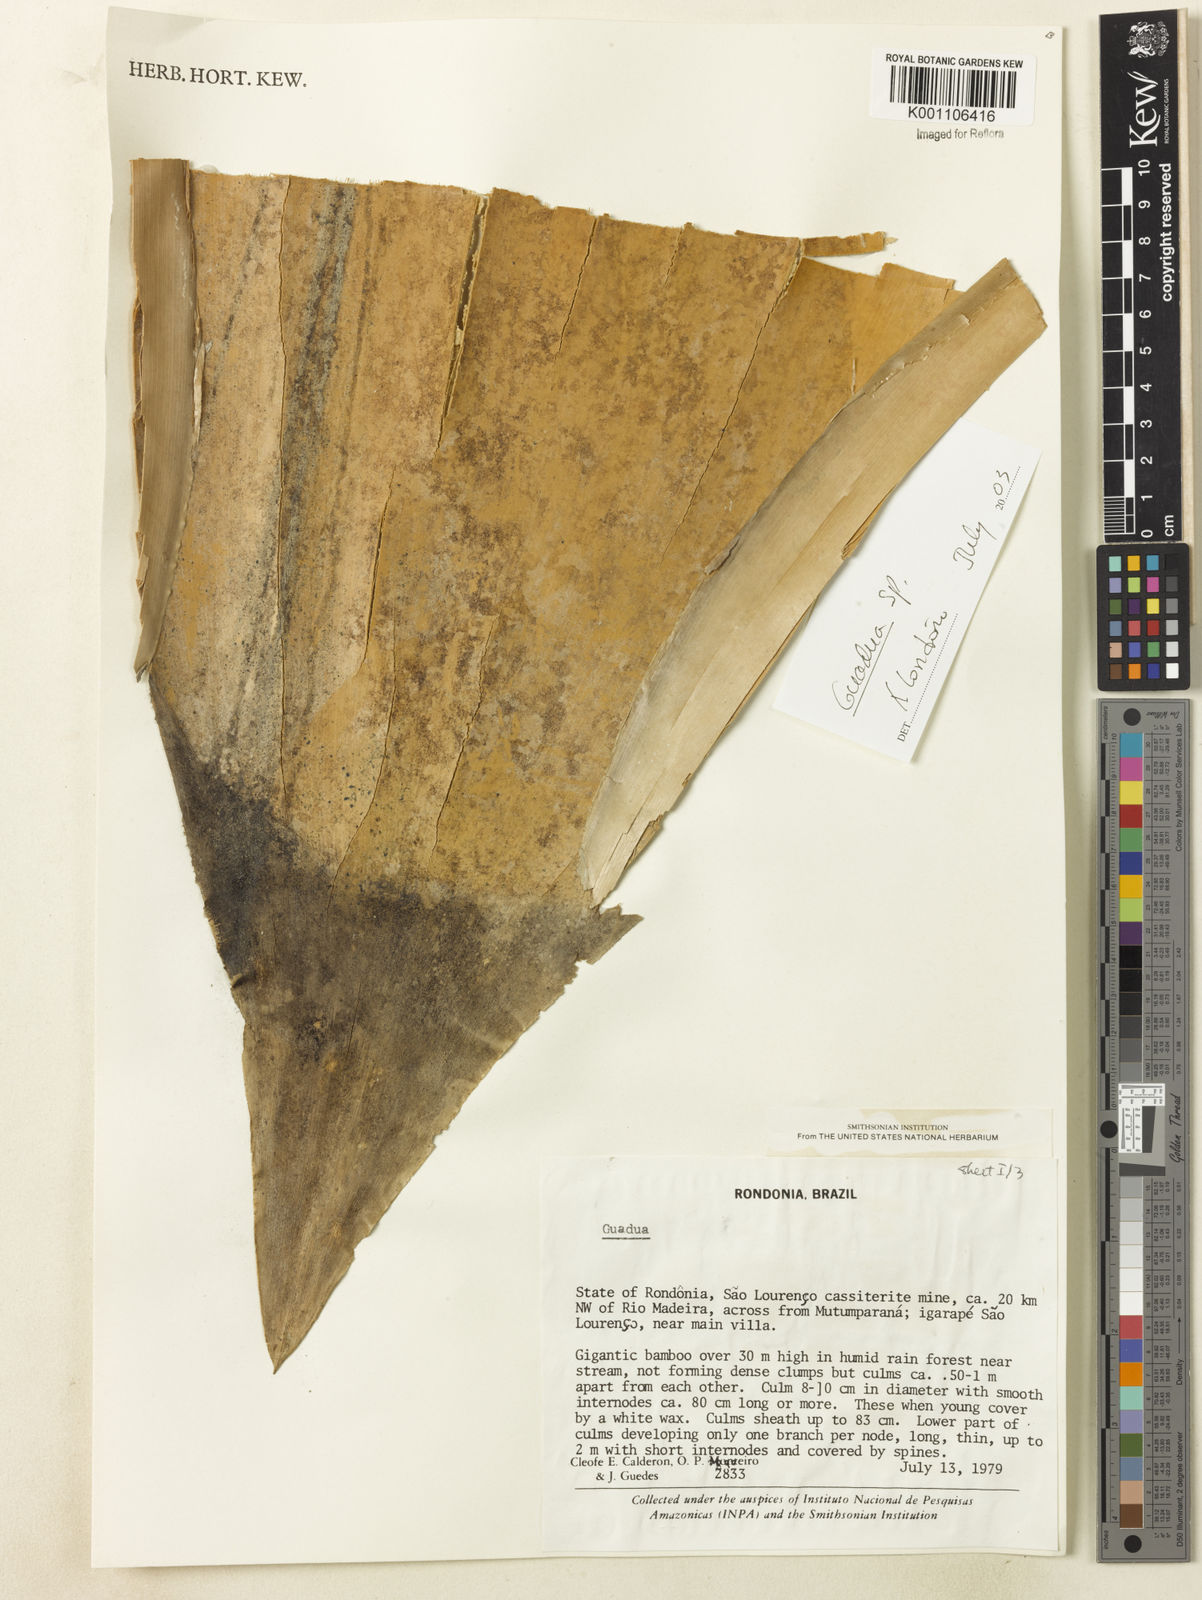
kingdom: Plantae
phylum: Tracheophyta
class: Liliopsida
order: Poales
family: Poaceae
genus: Guadua
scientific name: Guadua
